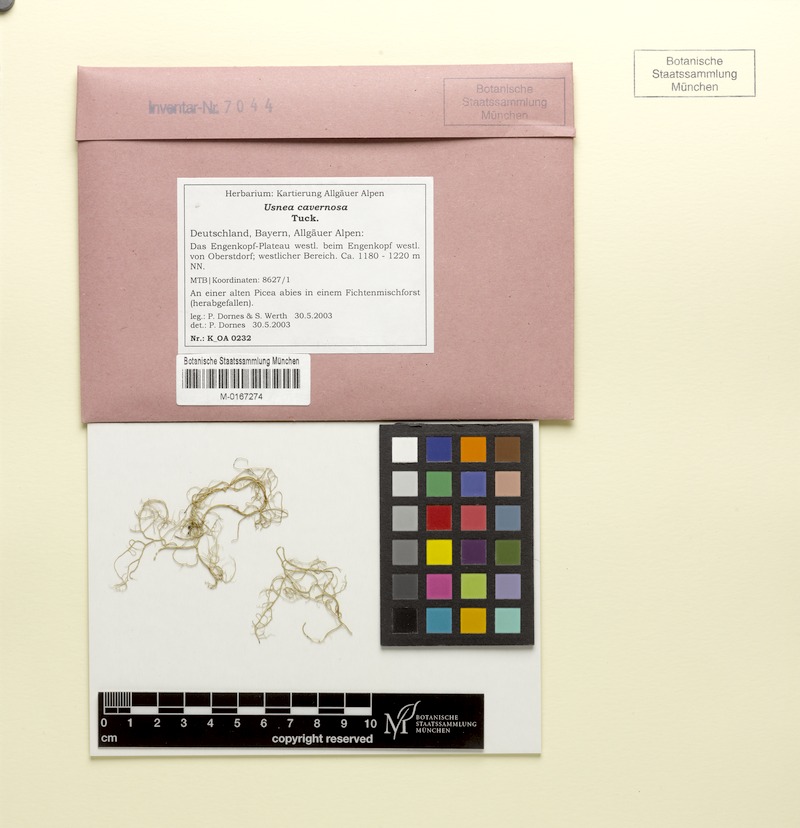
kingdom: Fungi
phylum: Ascomycota
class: Lecanoromycetes
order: Lecanorales
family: Parmeliaceae
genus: Usnea
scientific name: Usnea cavernosa
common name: Pitted beard lichen
